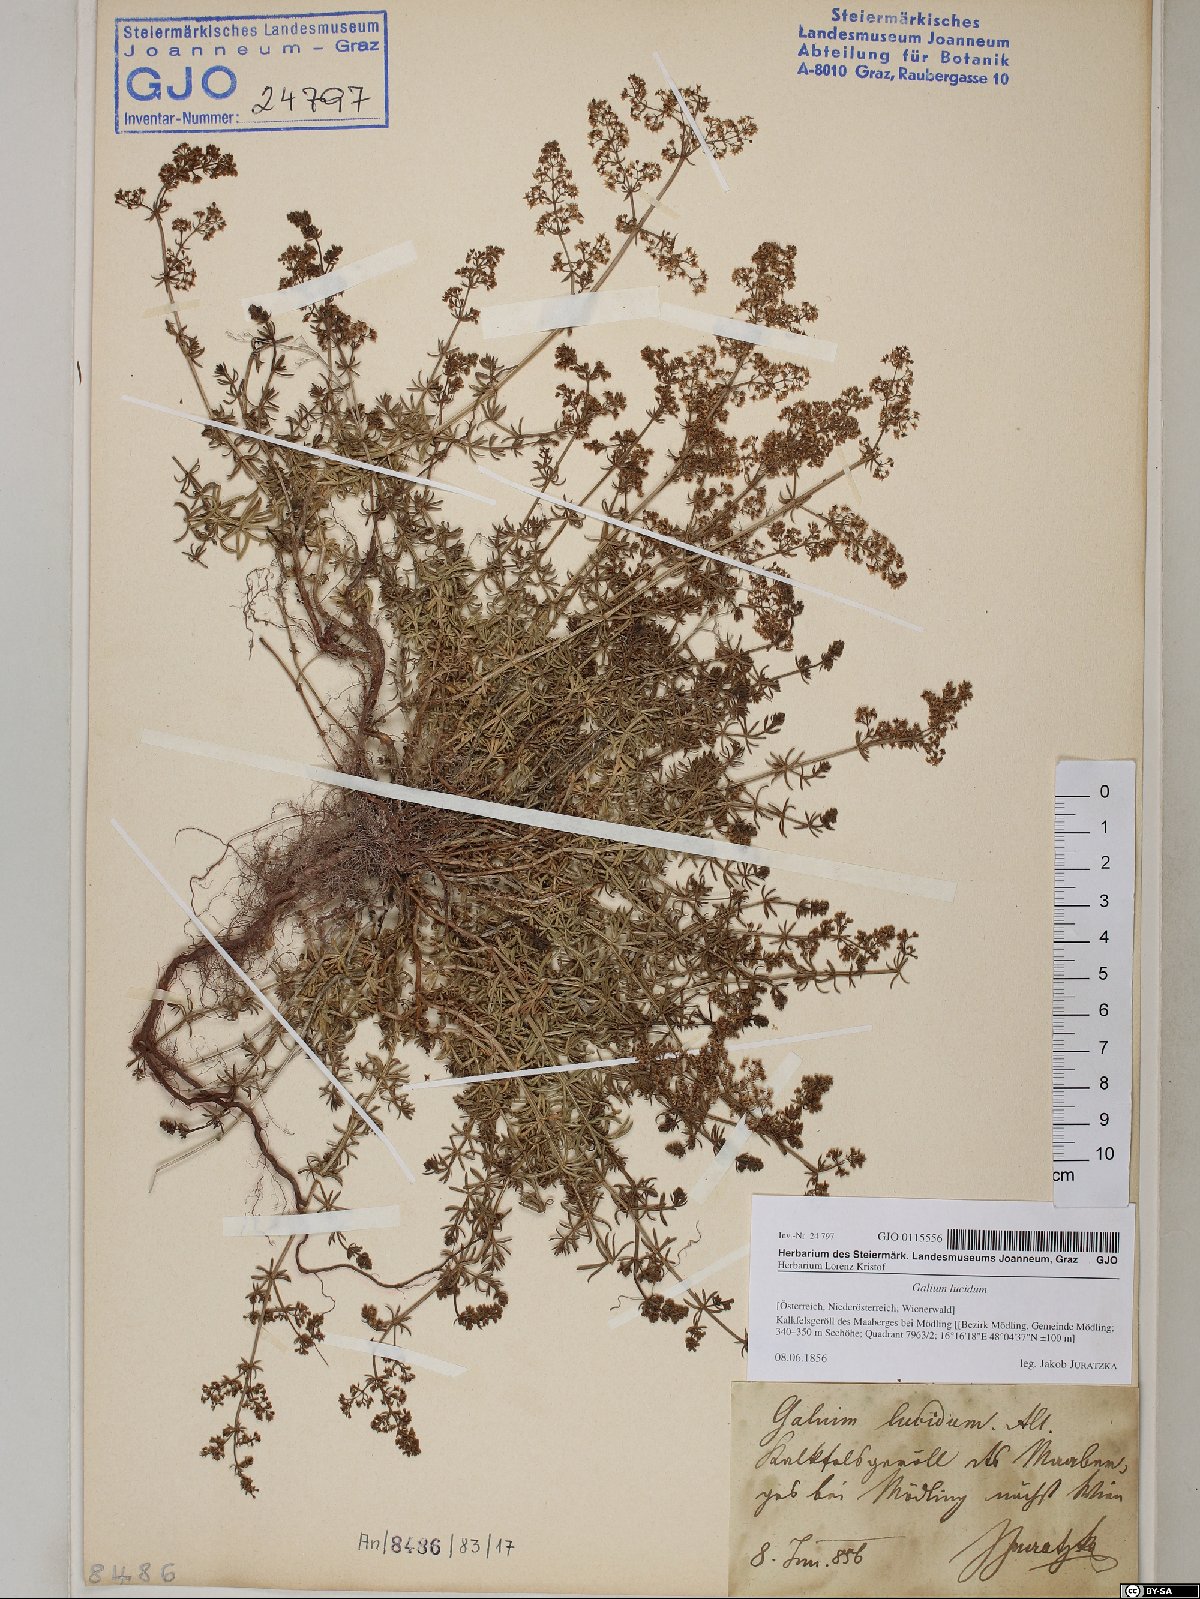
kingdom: Plantae
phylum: Tracheophyta
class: Magnoliopsida
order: Gentianales
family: Rubiaceae
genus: Galium
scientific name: Galium lucidum
